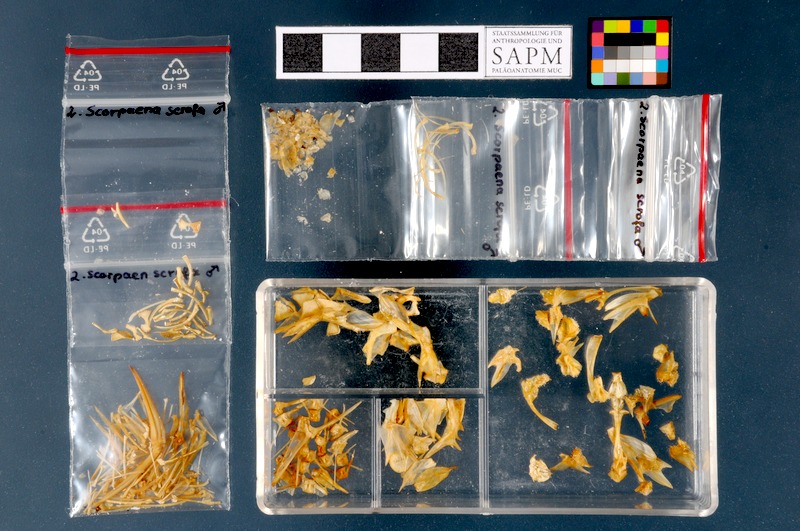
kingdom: Animalia
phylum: Chordata
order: Scorpaeniformes
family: Scorpaenidae
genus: Scorpaena
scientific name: Scorpaena scrofa
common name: Red scorpionfish
